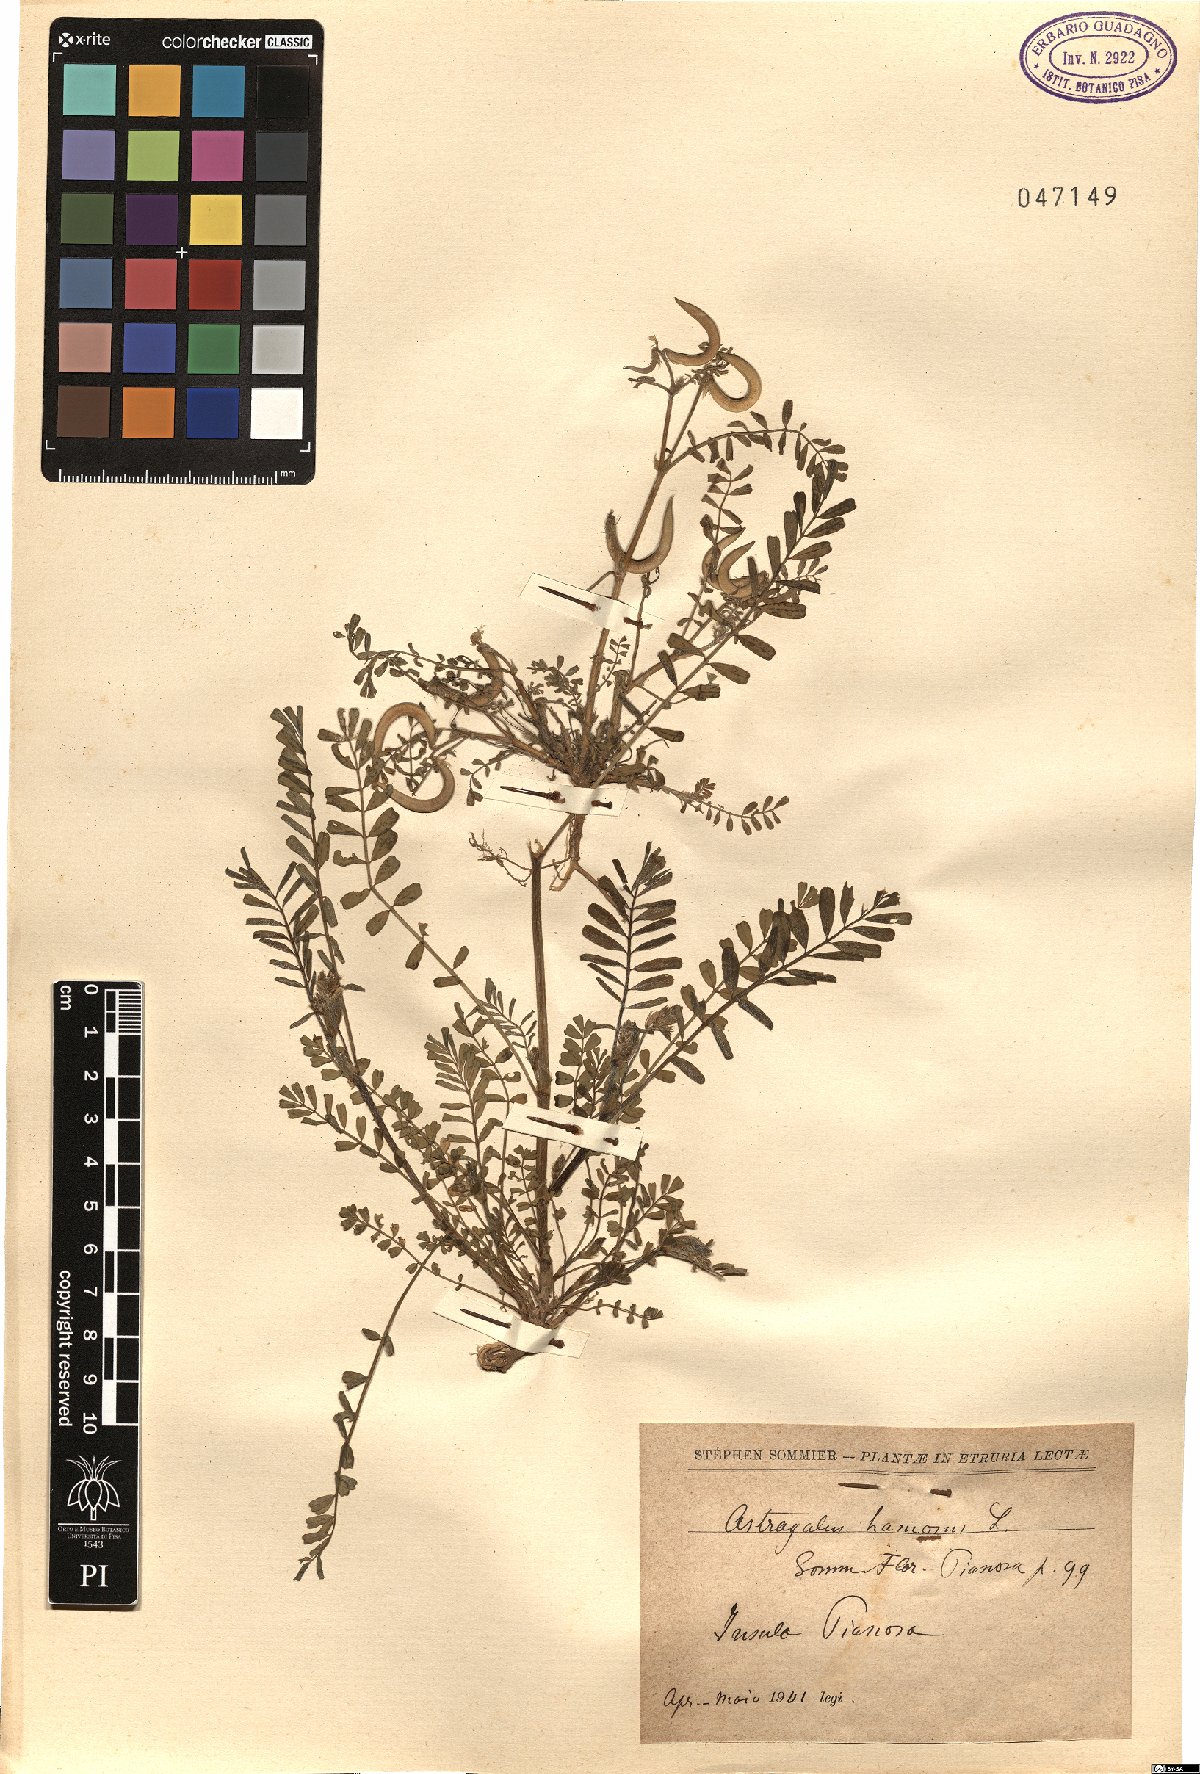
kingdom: Plantae
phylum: Tracheophyta
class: Magnoliopsida
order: Fabales
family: Fabaceae
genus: Astragalus
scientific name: Astragalus hamosus
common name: European milkvetch
